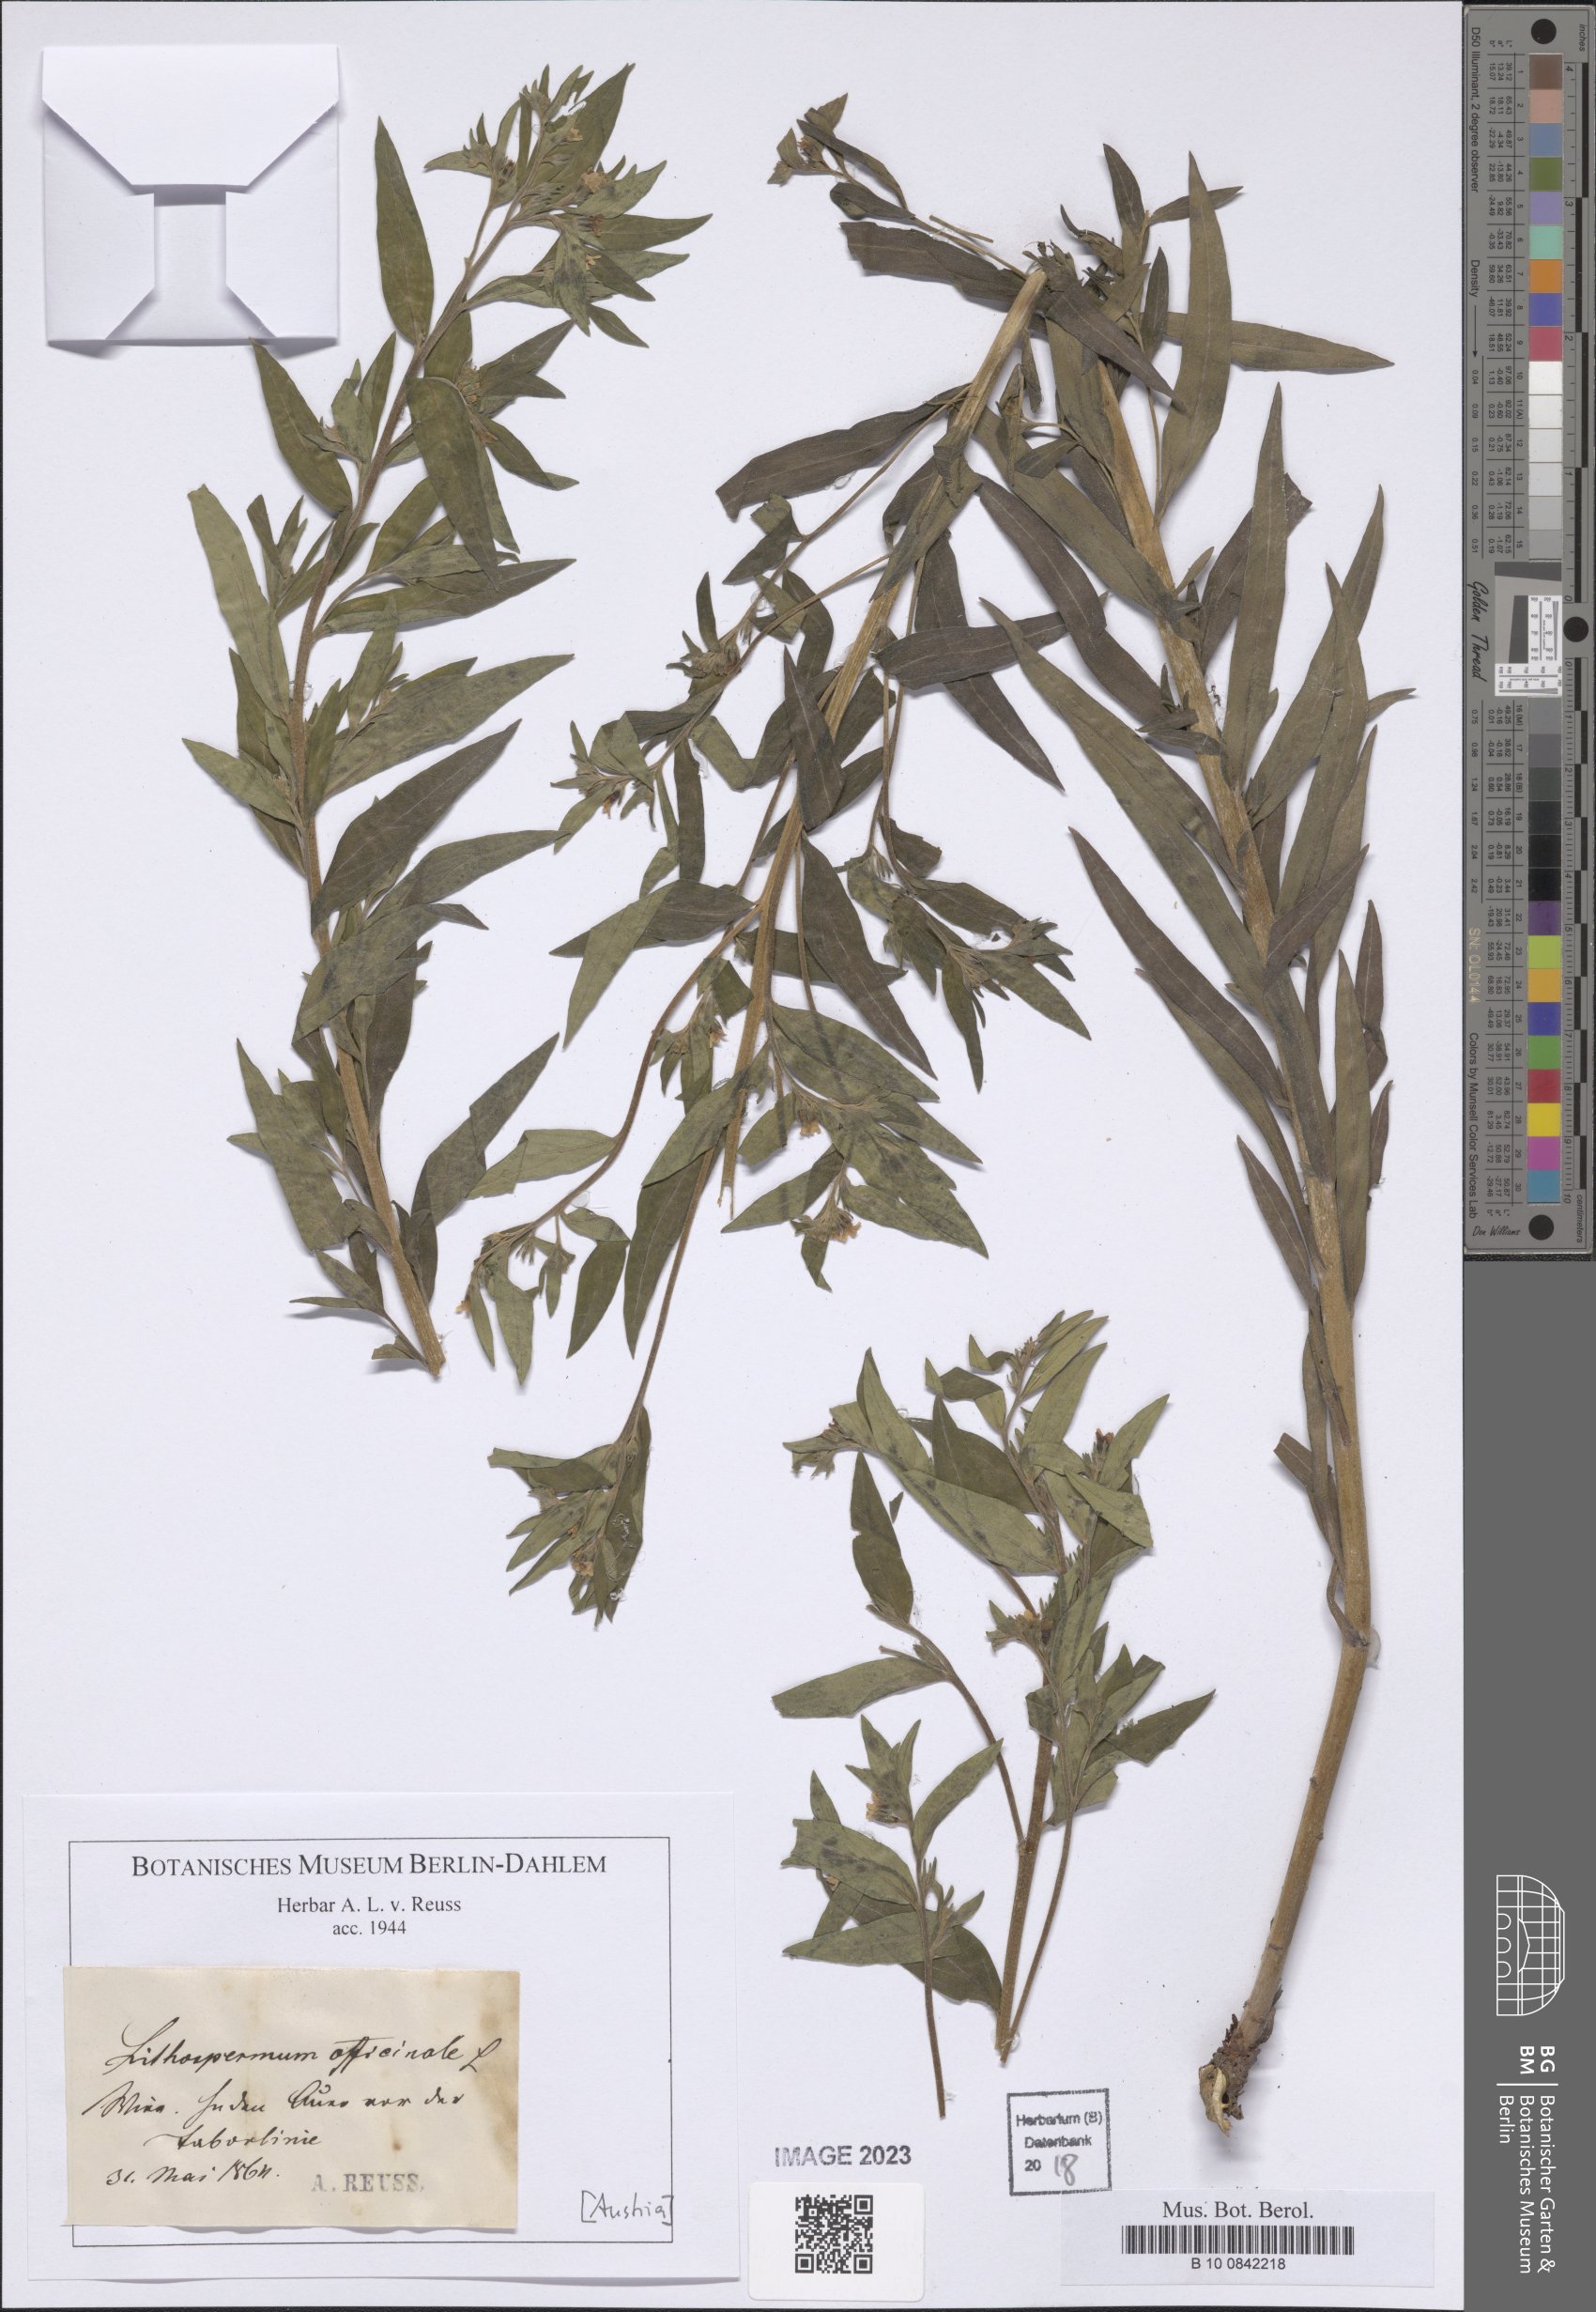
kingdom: Plantae
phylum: Tracheophyta
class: Magnoliopsida
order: Boraginales
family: Boraginaceae
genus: Lithospermum
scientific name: Lithospermum officinale
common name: Common gromwell
